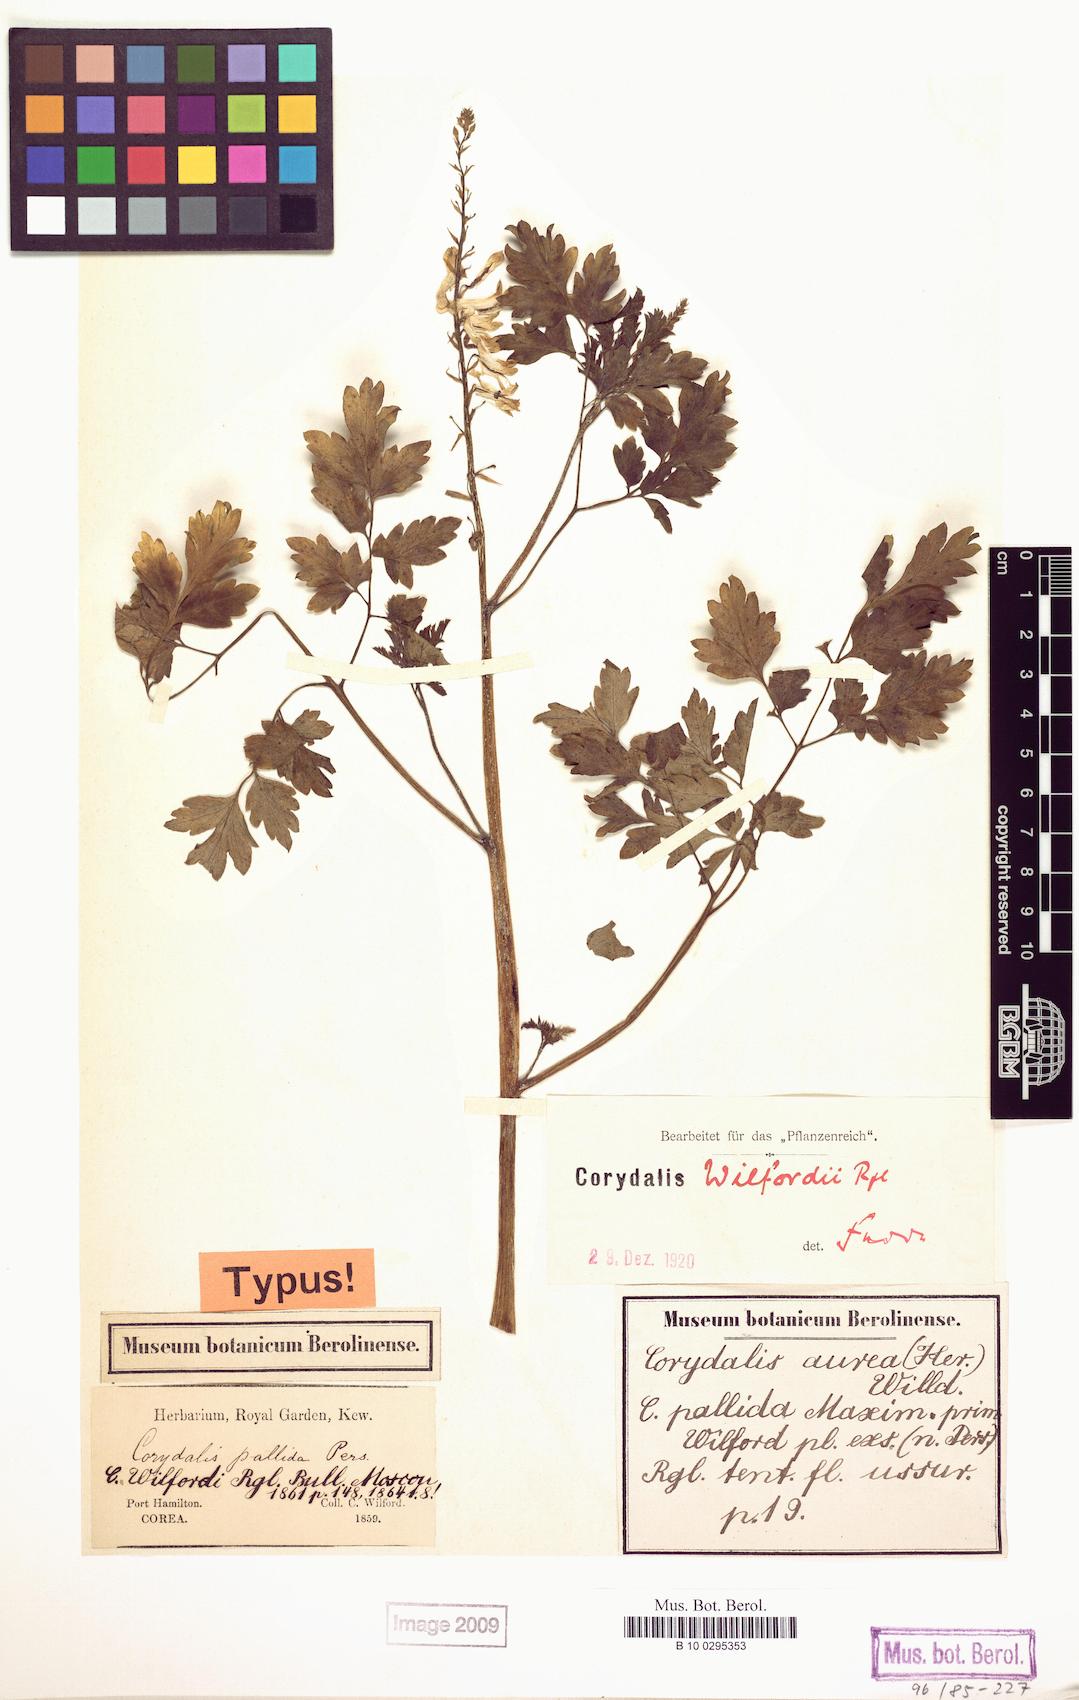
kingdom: Plantae
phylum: Tracheophyta
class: Magnoliopsida
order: Ranunculales
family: Papaveraceae
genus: Corydalis
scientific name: Corydalis wilfordii
